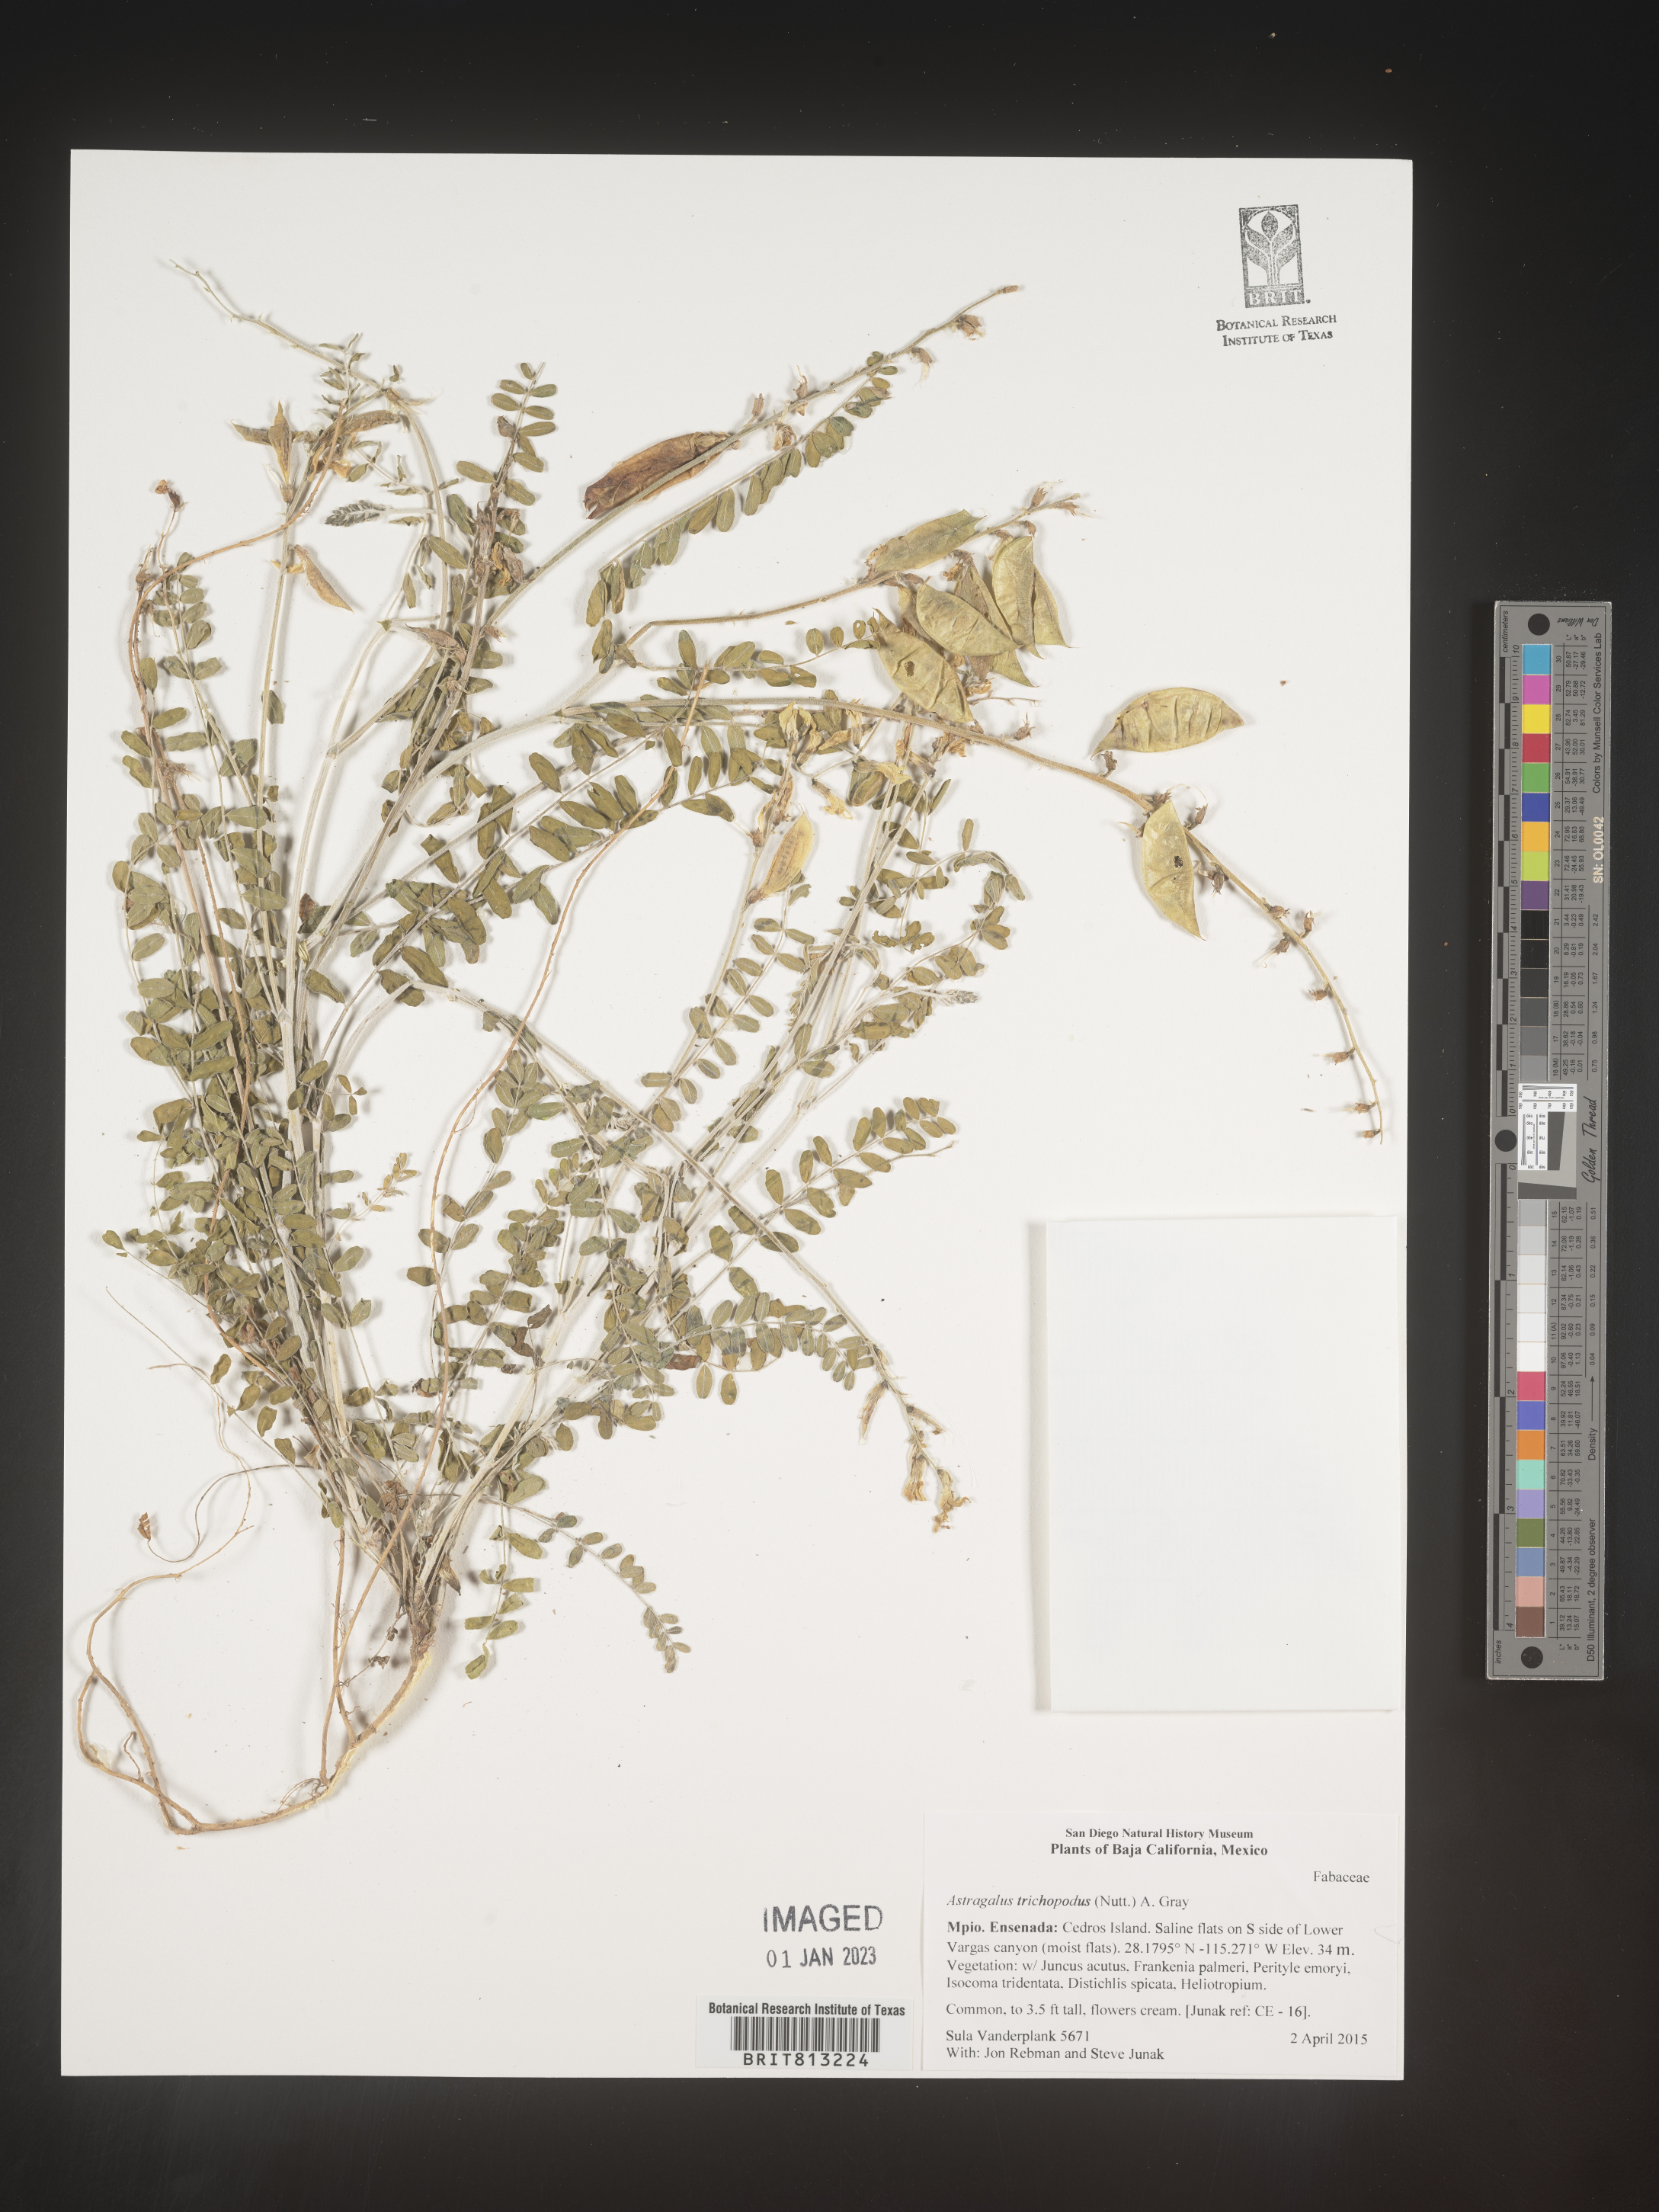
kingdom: Plantae
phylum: Tracheophyta
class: Magnoliopsida
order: Fabales
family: Fabaceae
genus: Astragalus
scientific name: Astragalus
